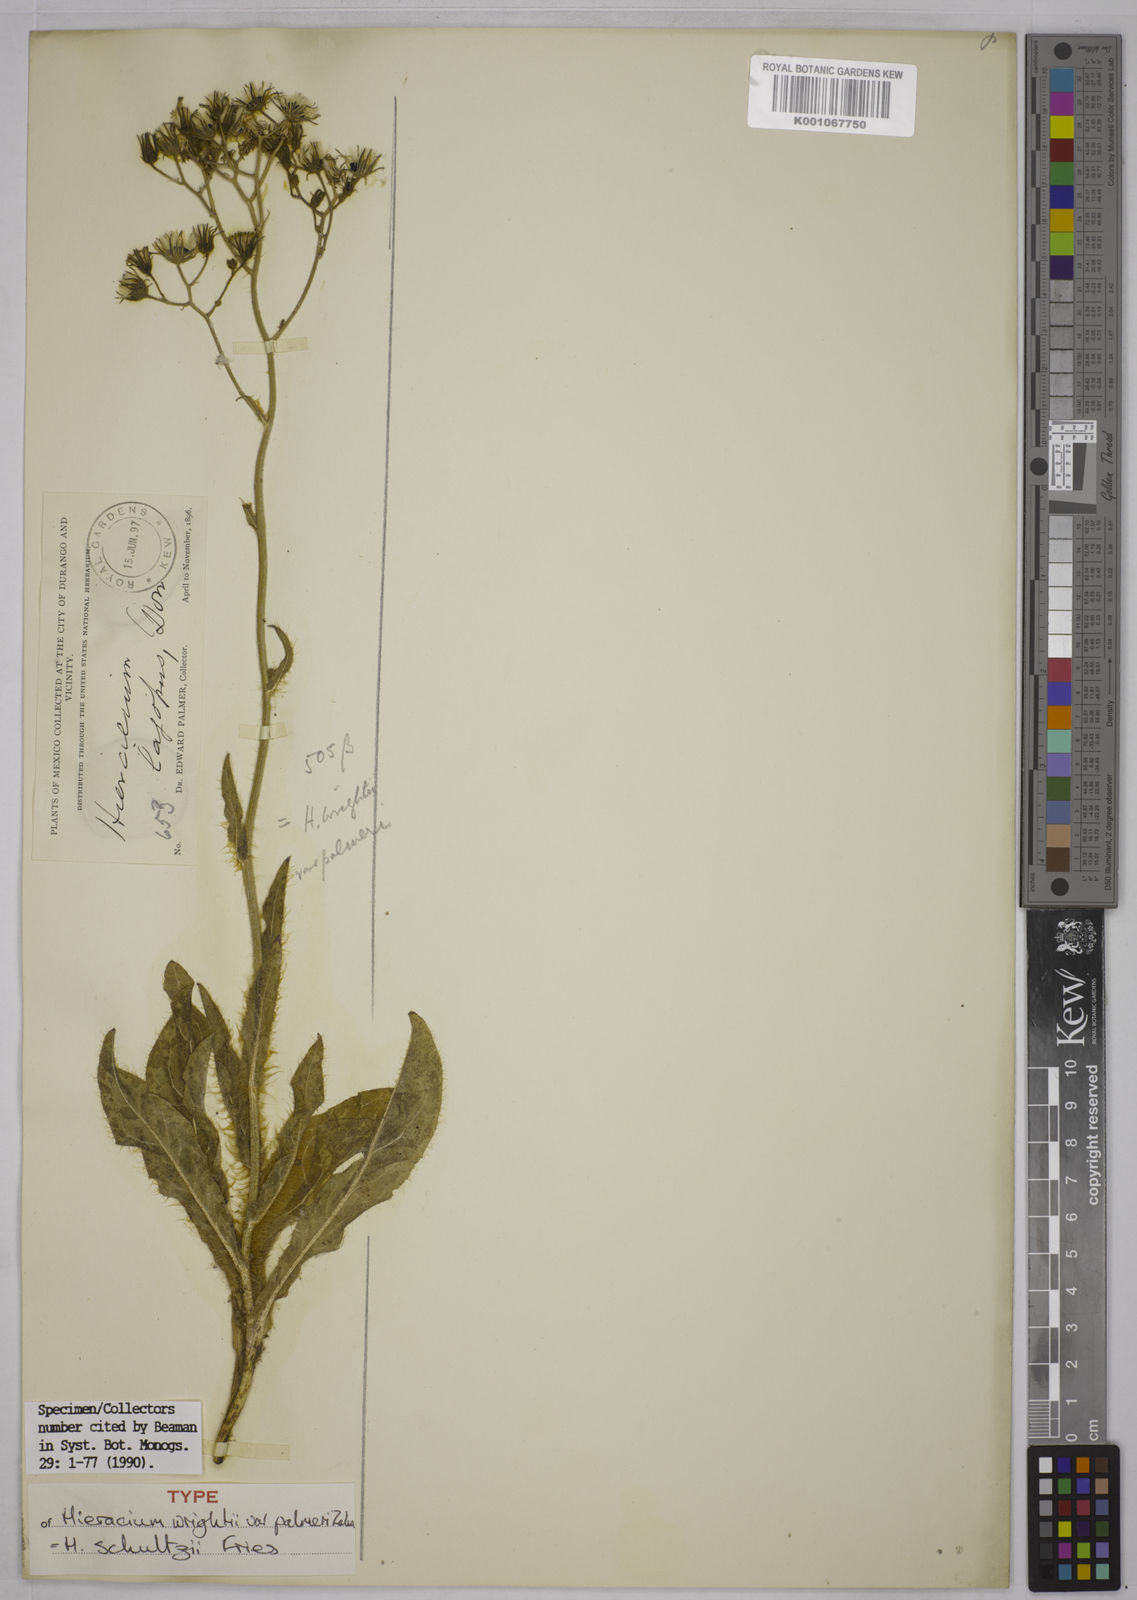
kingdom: Plantae
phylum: Tracheophyta
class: Magnoliopsida
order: Asterales
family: Asteraceae
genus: Hieracium
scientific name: Hieracium friesii
